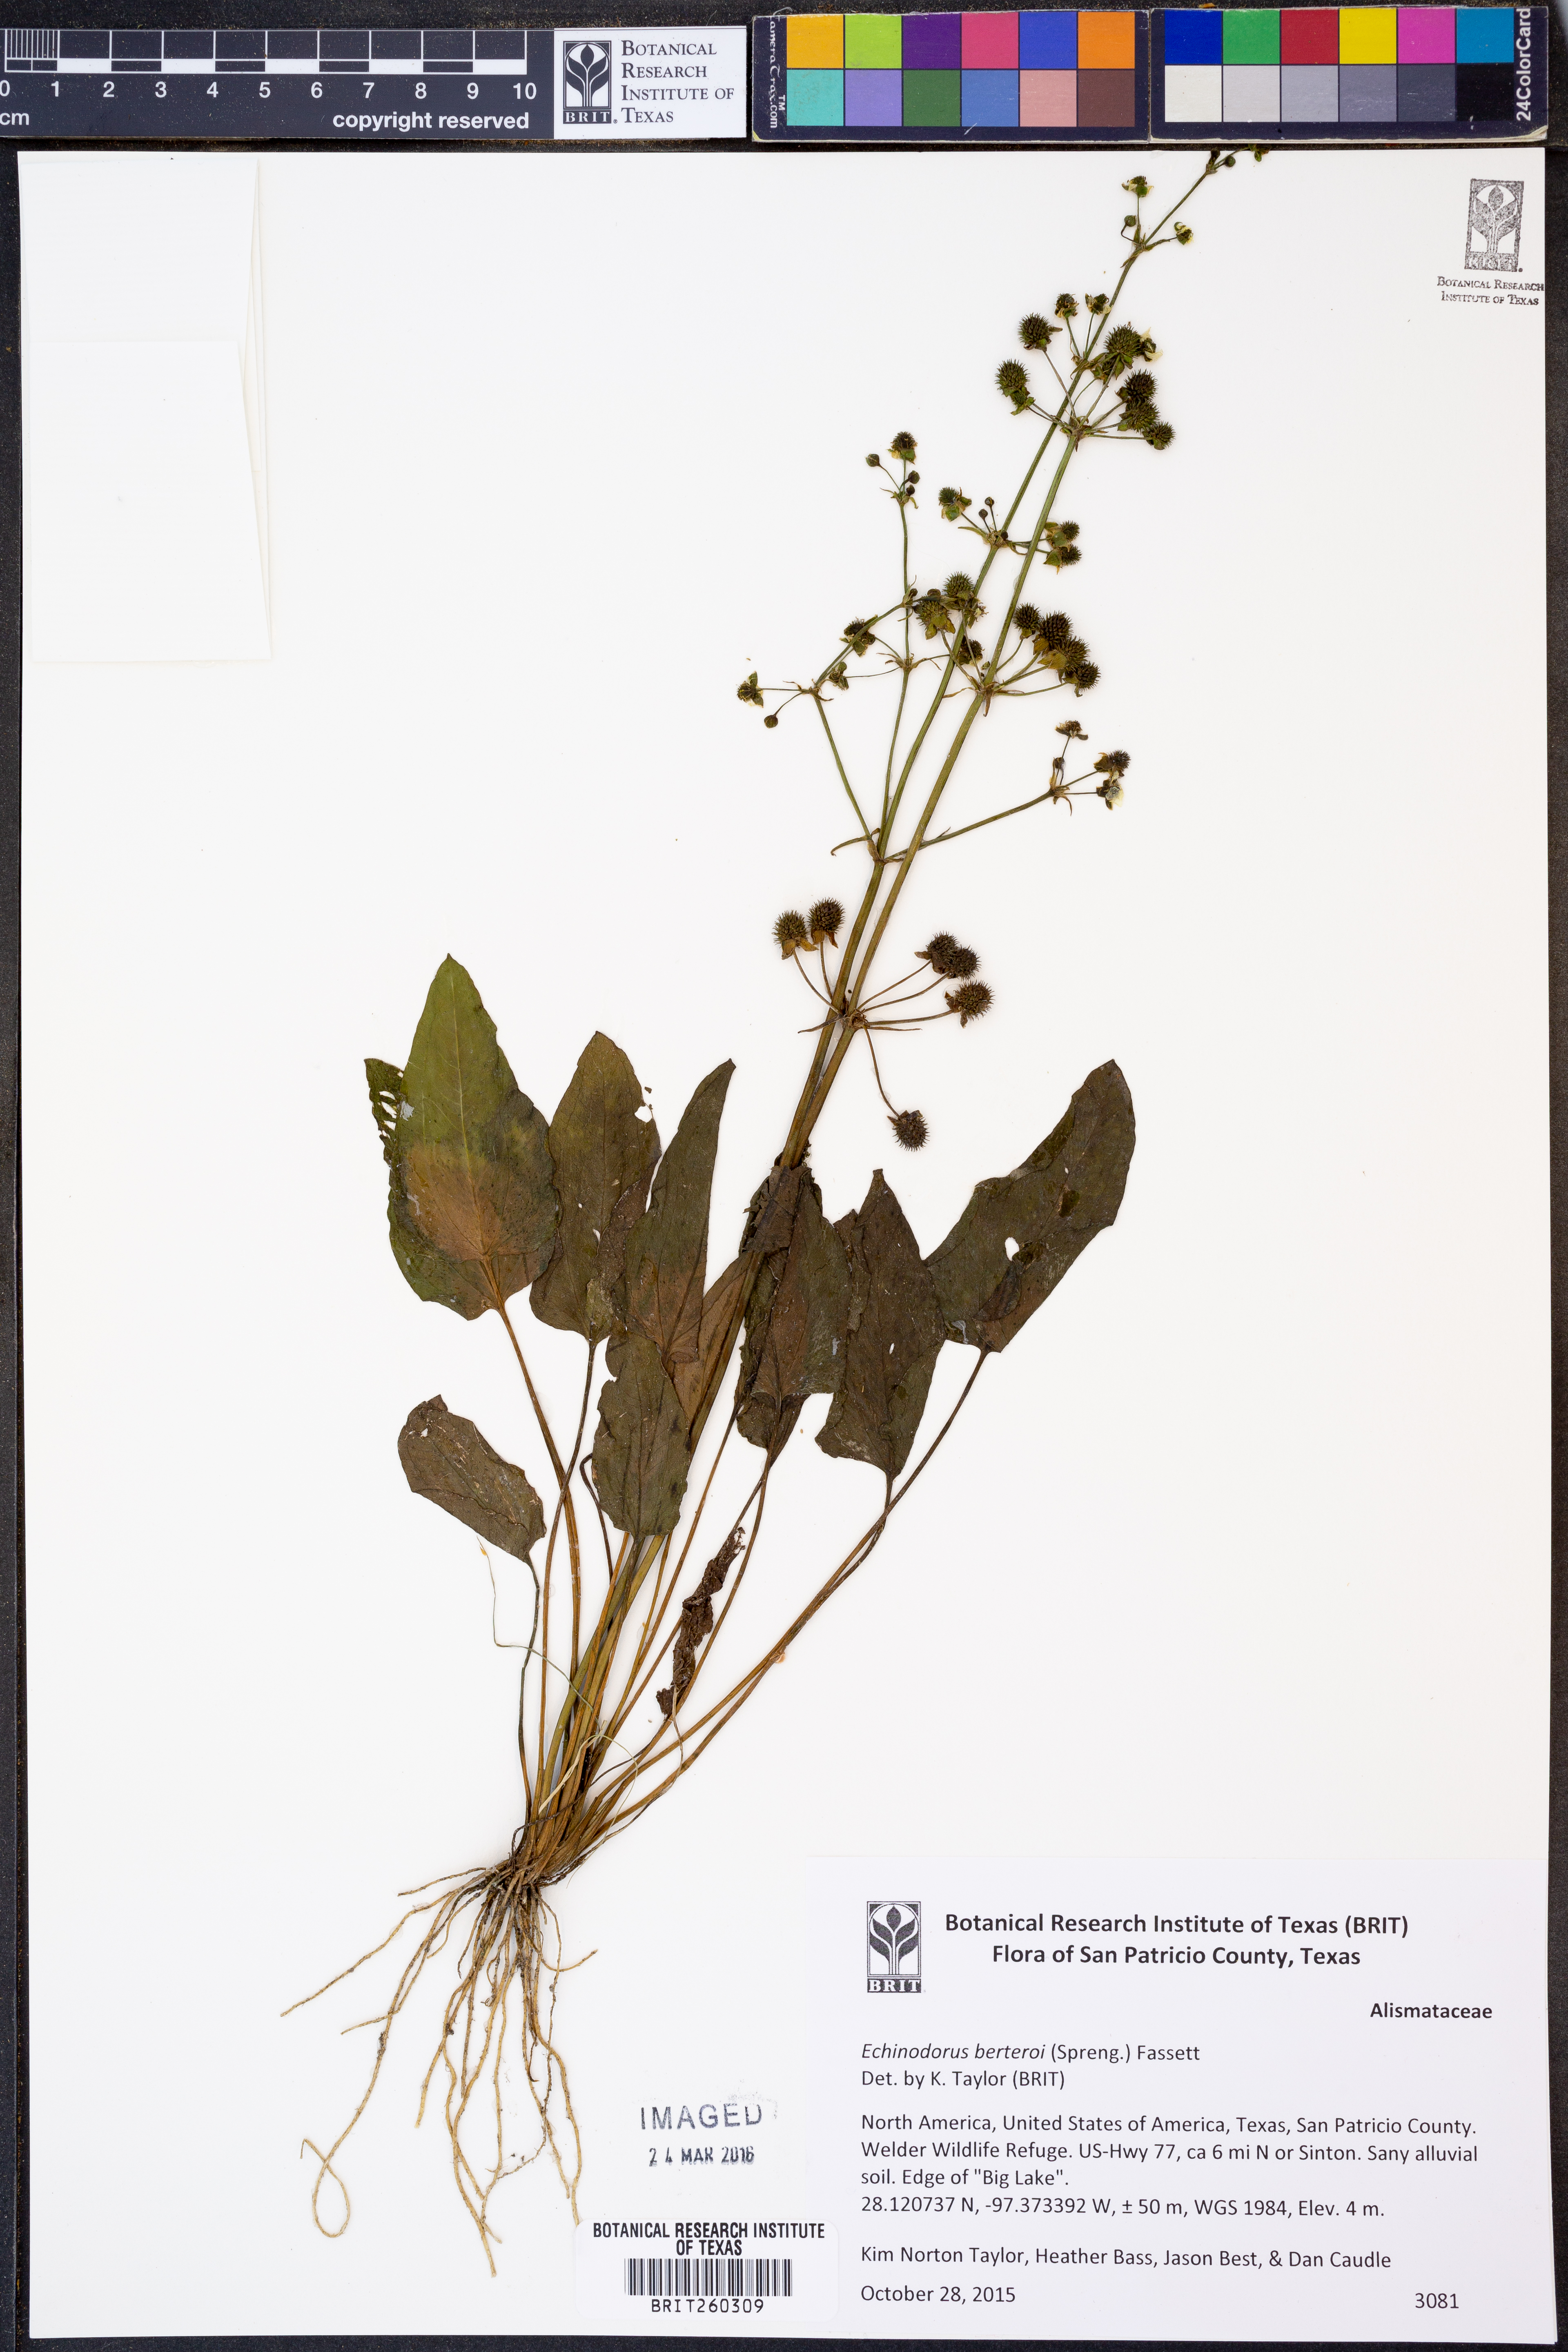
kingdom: Plantae
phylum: Tracheophyta
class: Liliopsida
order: Alismatales
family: Alismataceae
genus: Echinodorus
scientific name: Echinodorus berteroi
